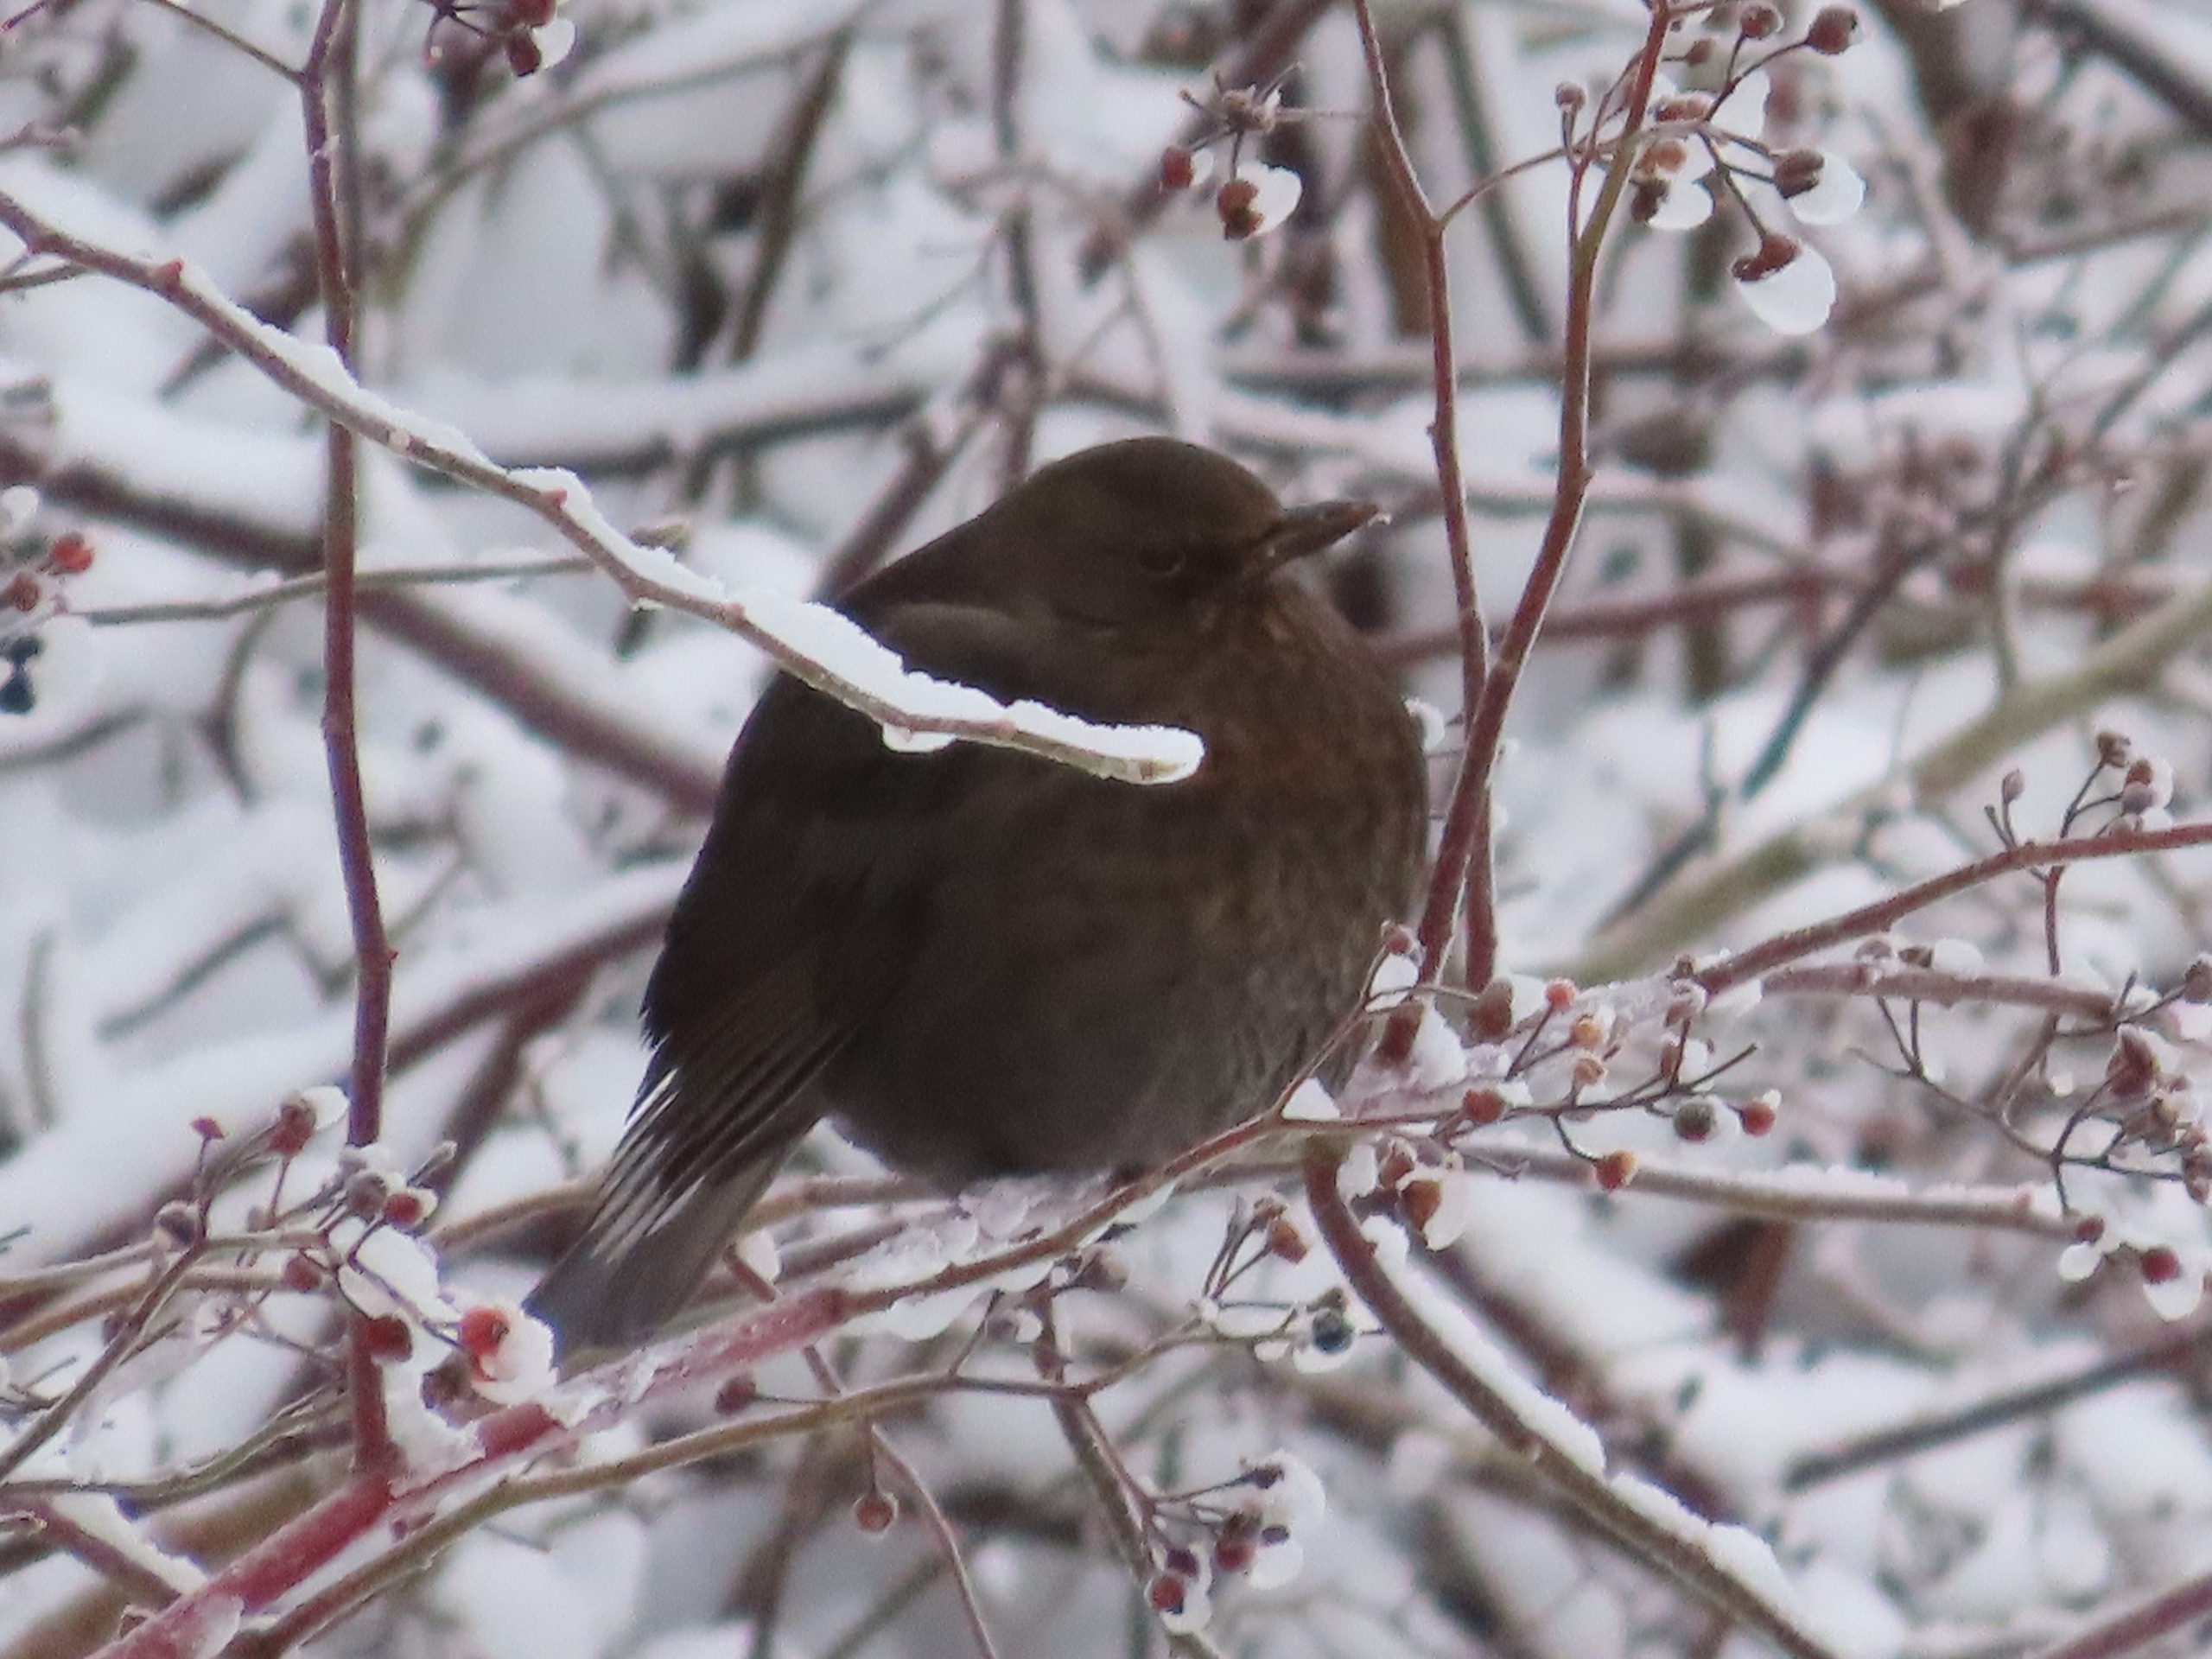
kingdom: Animalia
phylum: Chordata
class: Aves
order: Passeriformes
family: Turdidae
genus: Turdus
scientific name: Turdus merula
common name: Solsort
